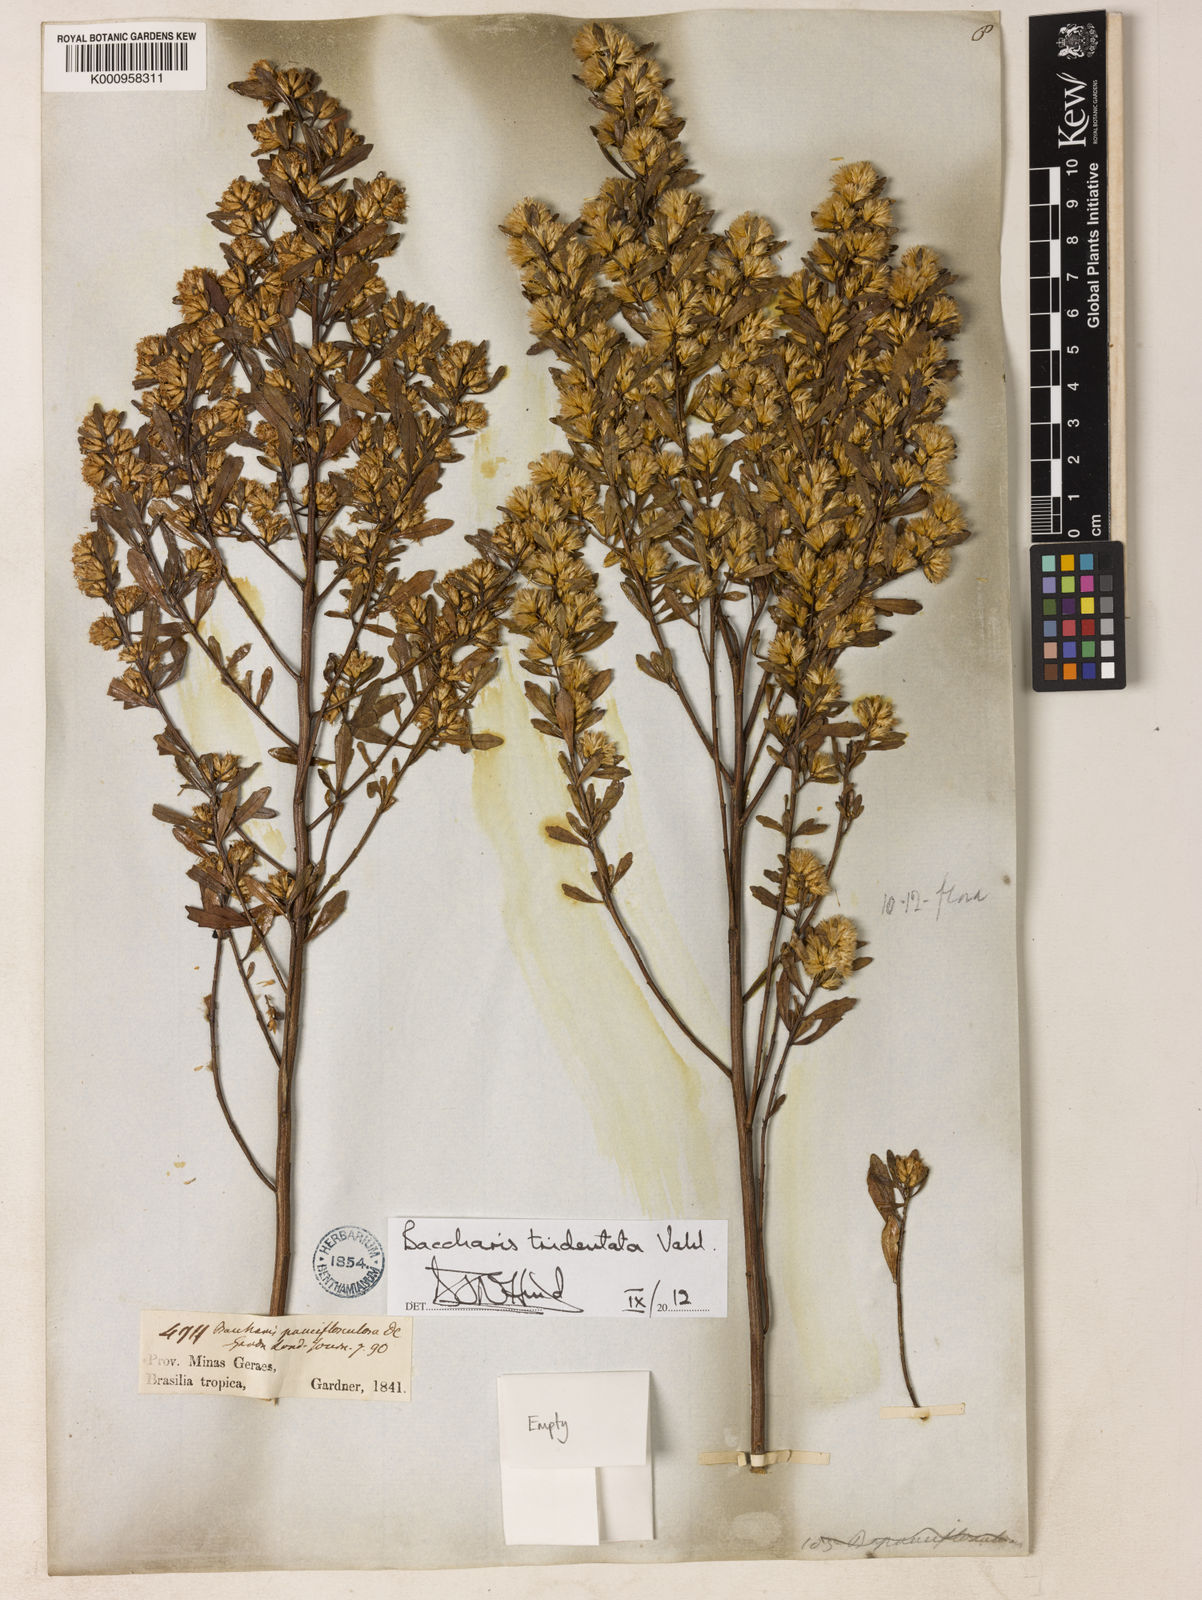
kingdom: Plantae
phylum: Tracheophyta
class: Magnoliopsida
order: Asterales
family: Asteraceae
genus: Baccharis
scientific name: Baccharis tridentata
